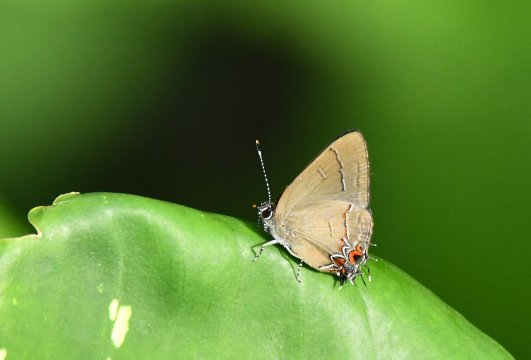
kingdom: Animalia
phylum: Arthropoda
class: Insecta
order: Lepidoptera
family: Lycaenidae
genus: Calycopis
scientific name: Calycopis thama
